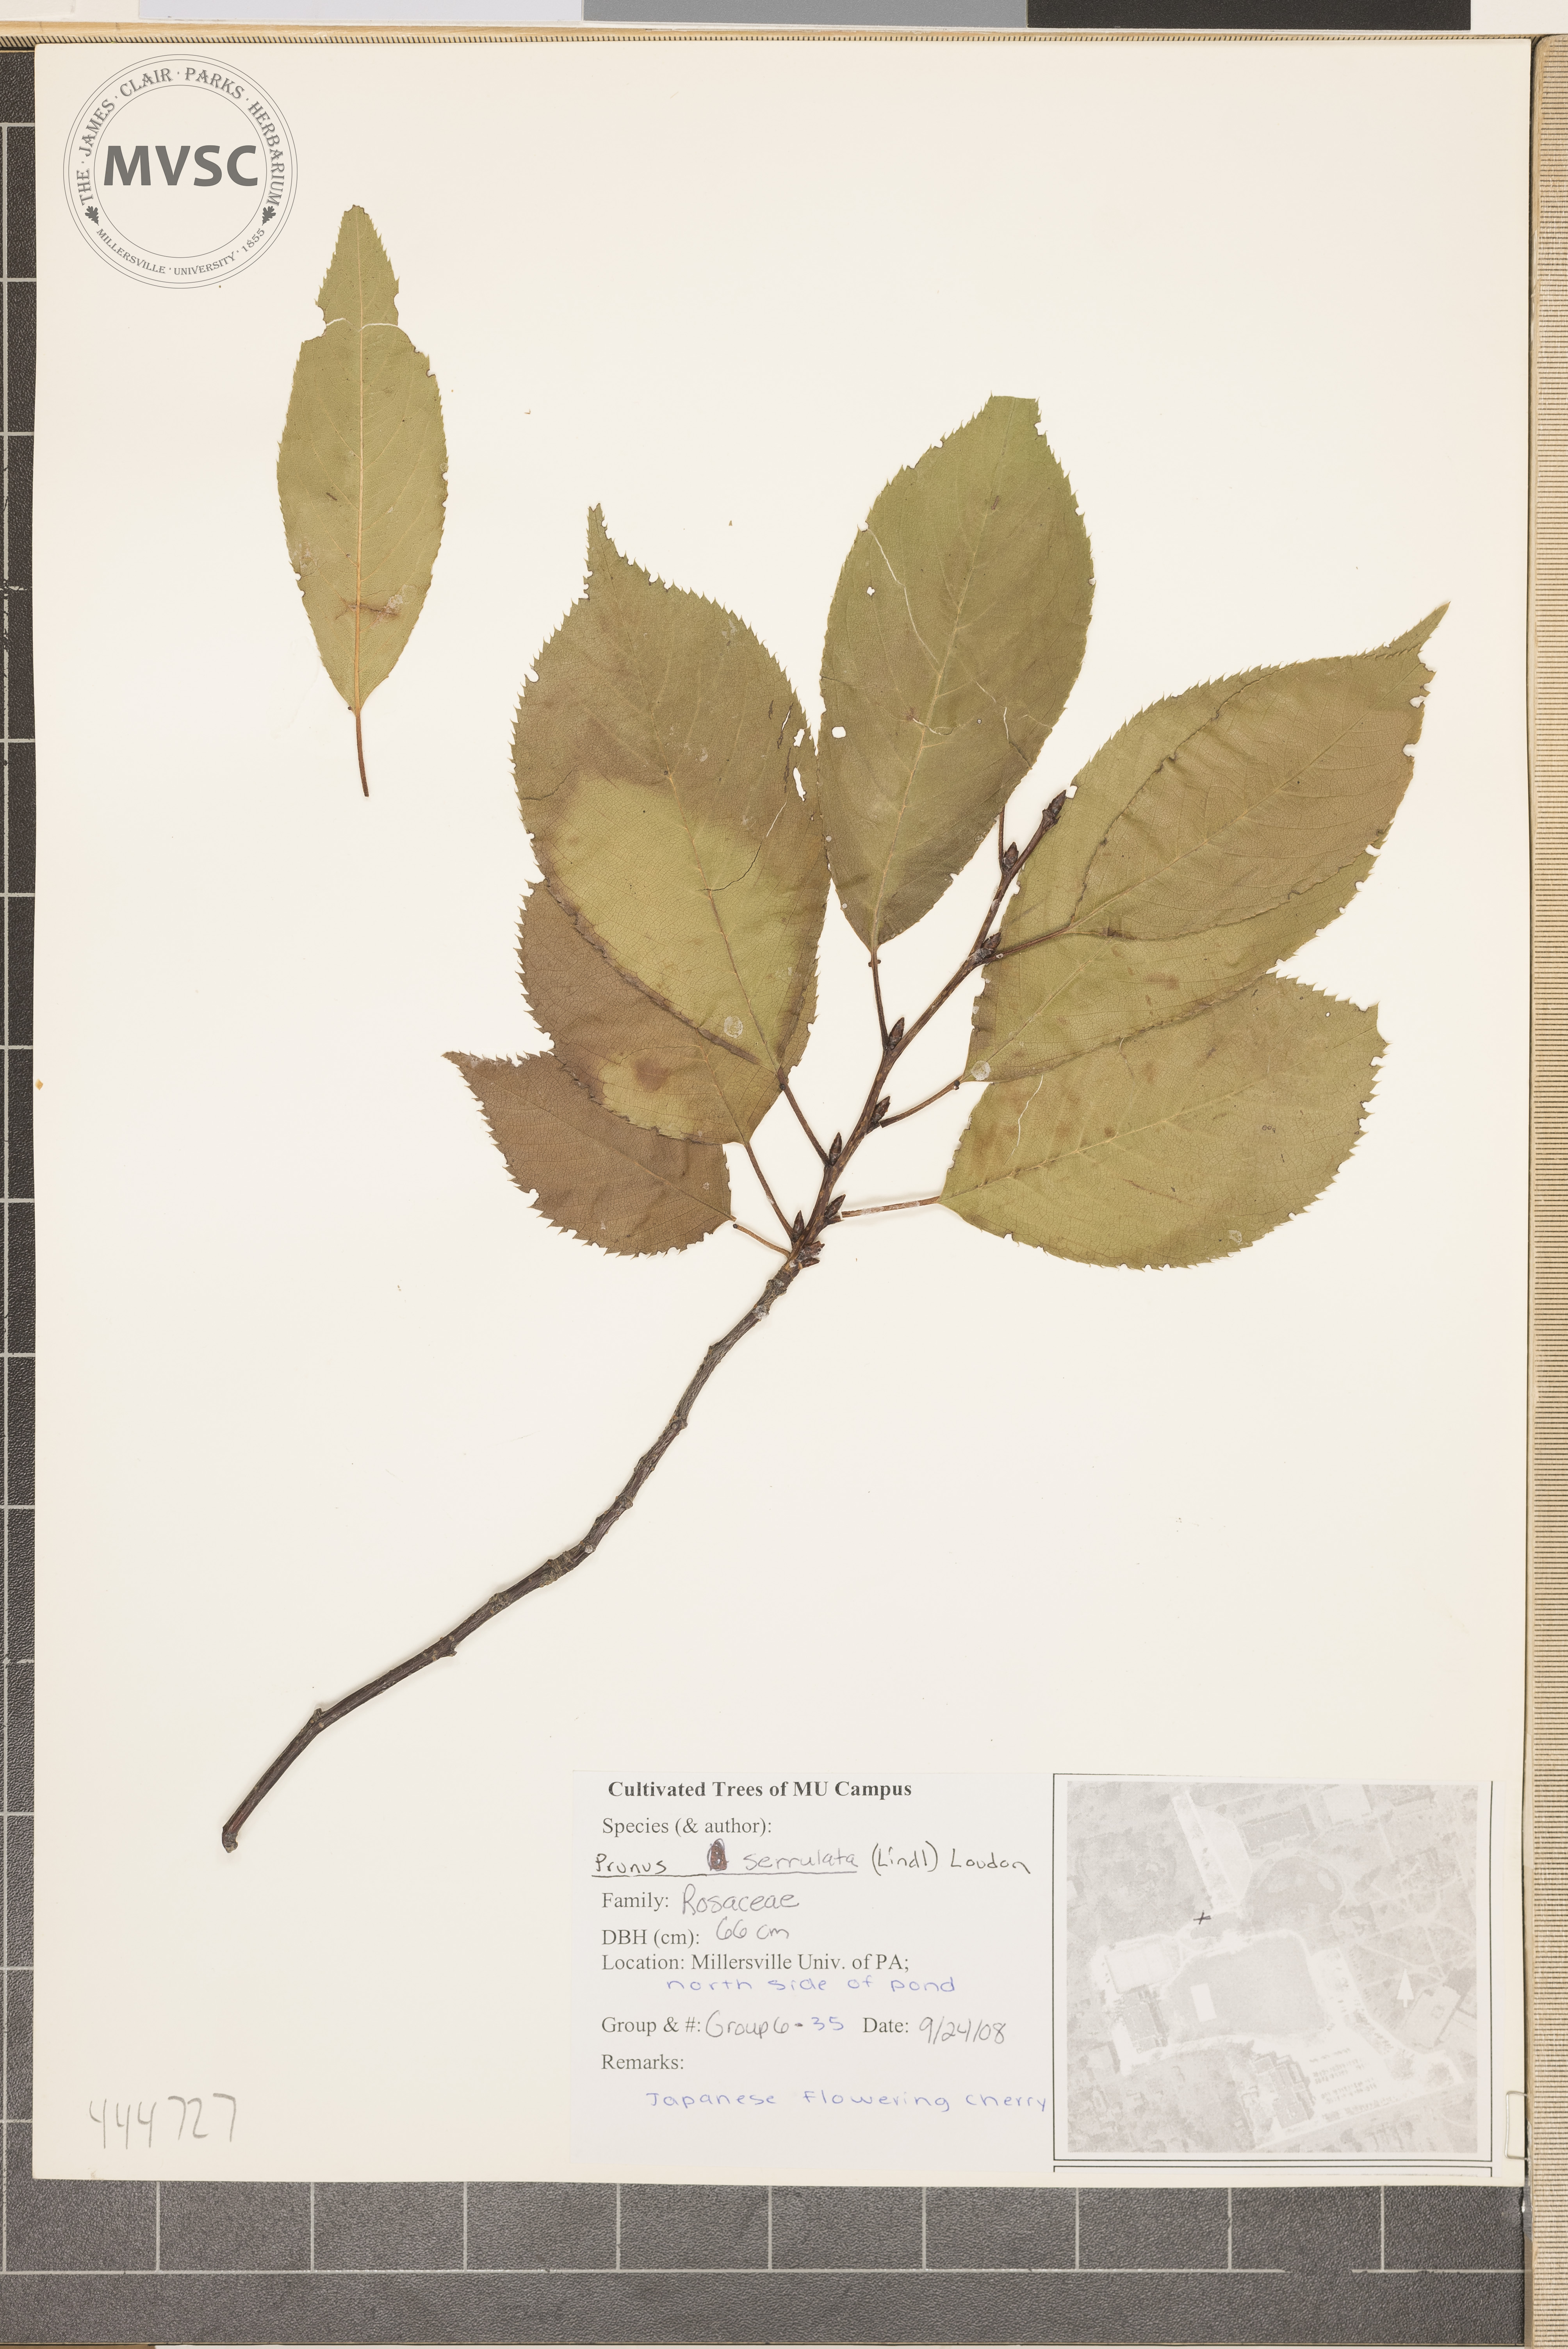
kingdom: Plantae
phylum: Tracheophyta
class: Magnoliopsida
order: Rosales
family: Rosaceae
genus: Prunus
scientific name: Prunus serrulata
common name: Japanese flowering cherry
